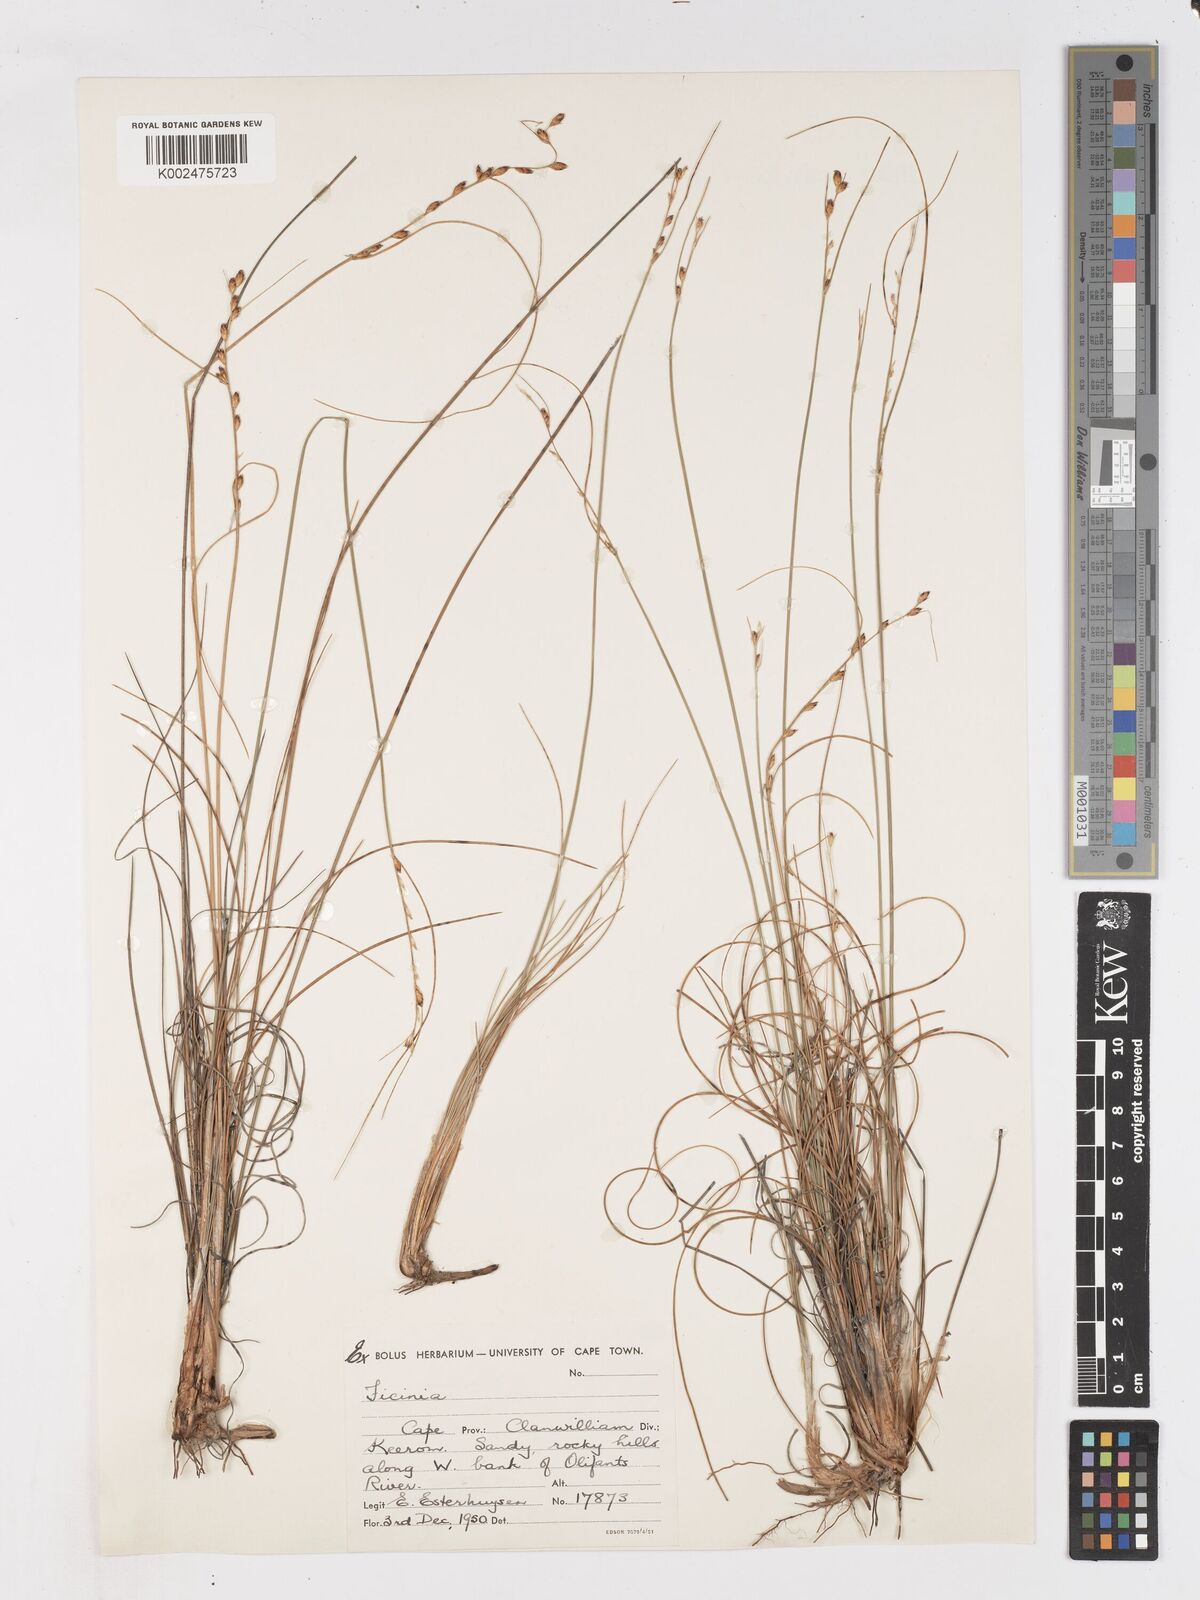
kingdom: Plantae
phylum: Tracheophyta
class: Liliopsida
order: Poales
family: Cyperaceae
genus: Ficinia
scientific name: Ficinia secunda
